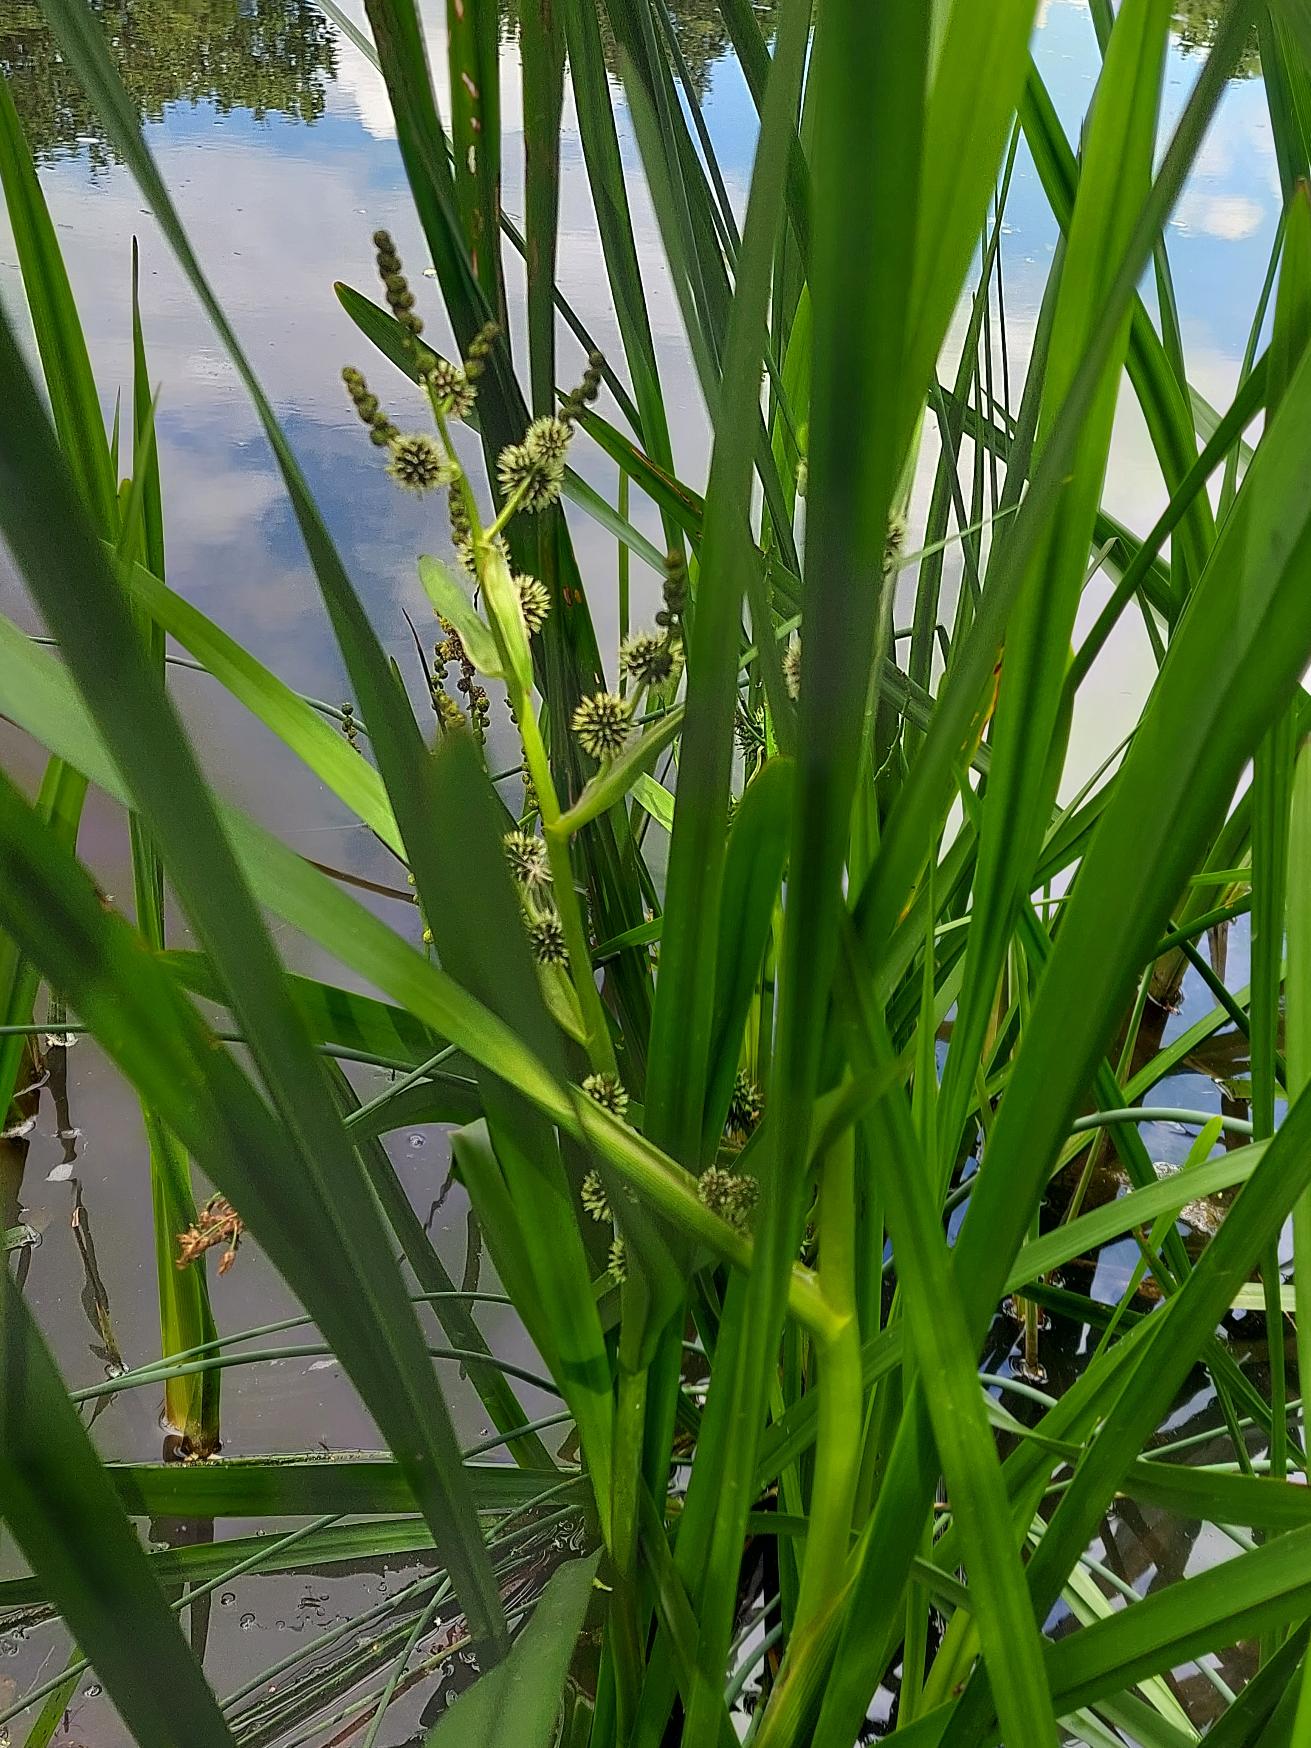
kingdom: Plantae
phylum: Tracheophyta
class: Liliopsida
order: Poales
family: Typhaceae
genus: Sparganium
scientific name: Sparganium erectum
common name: Grenet pindsvineknop
